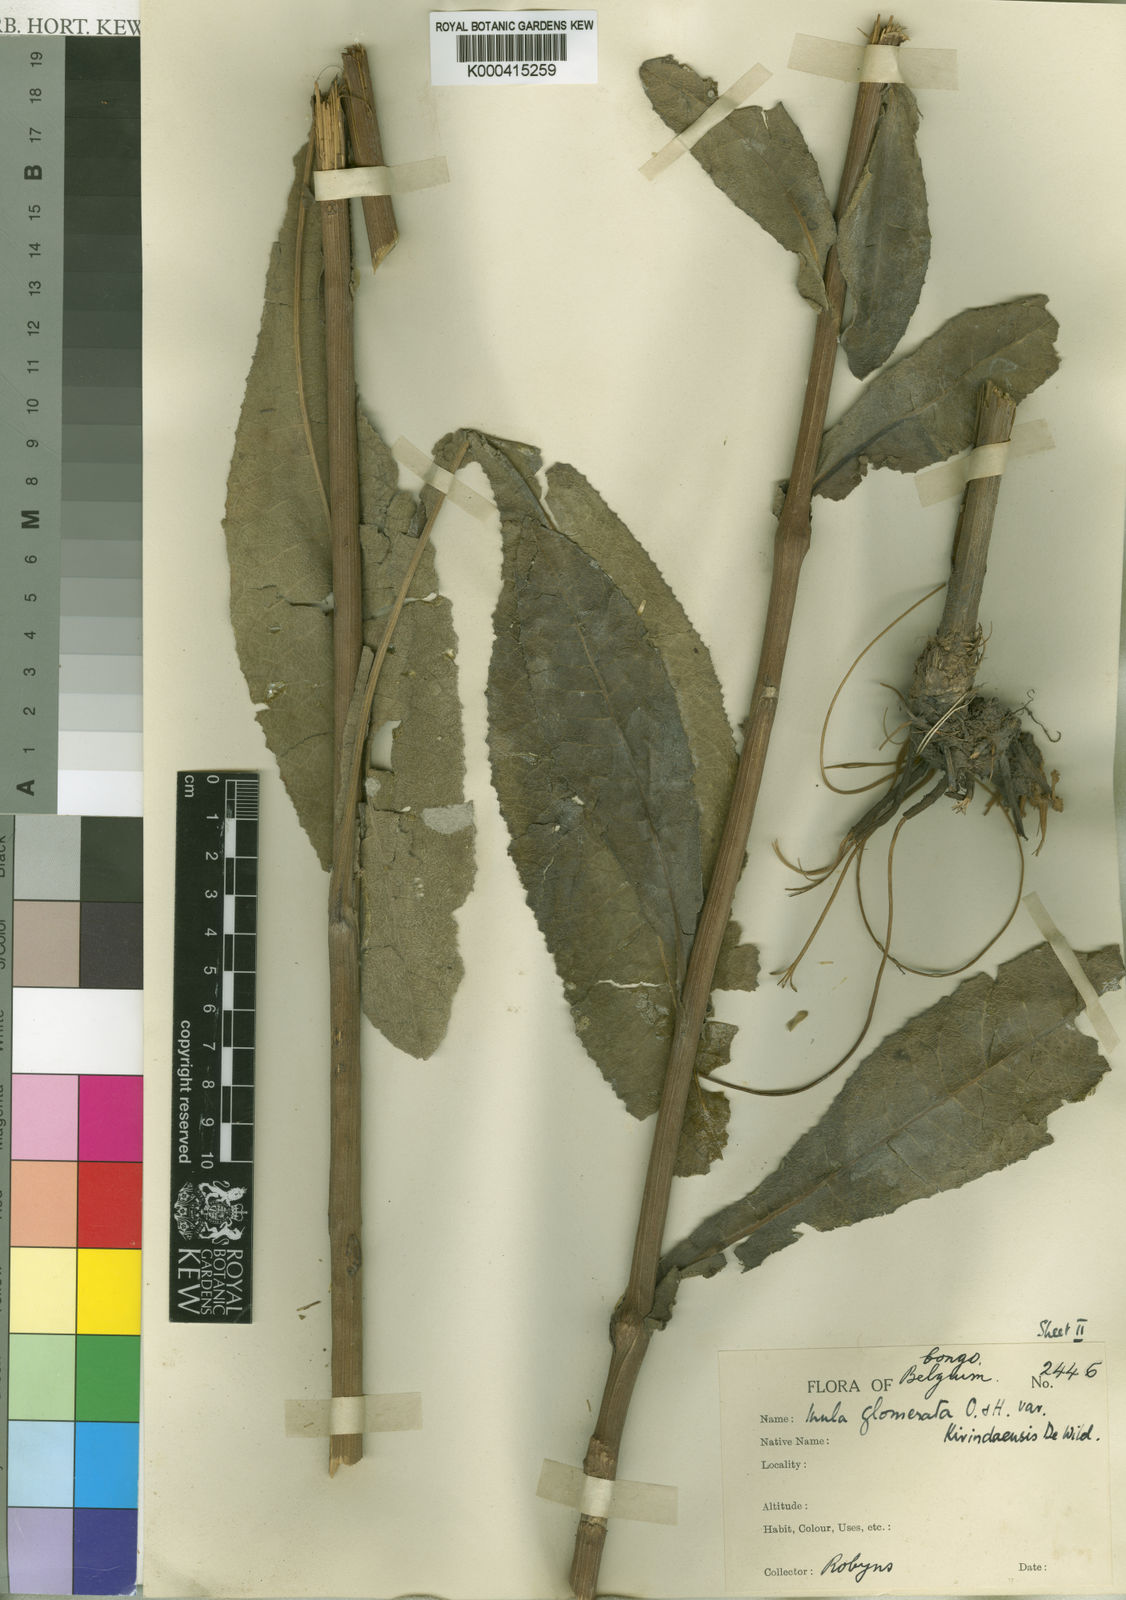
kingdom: Plantae
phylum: Tracheophyta
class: Magnoliopsida
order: Asterales
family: Asteraceae
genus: Inula
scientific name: Inula glomerata
